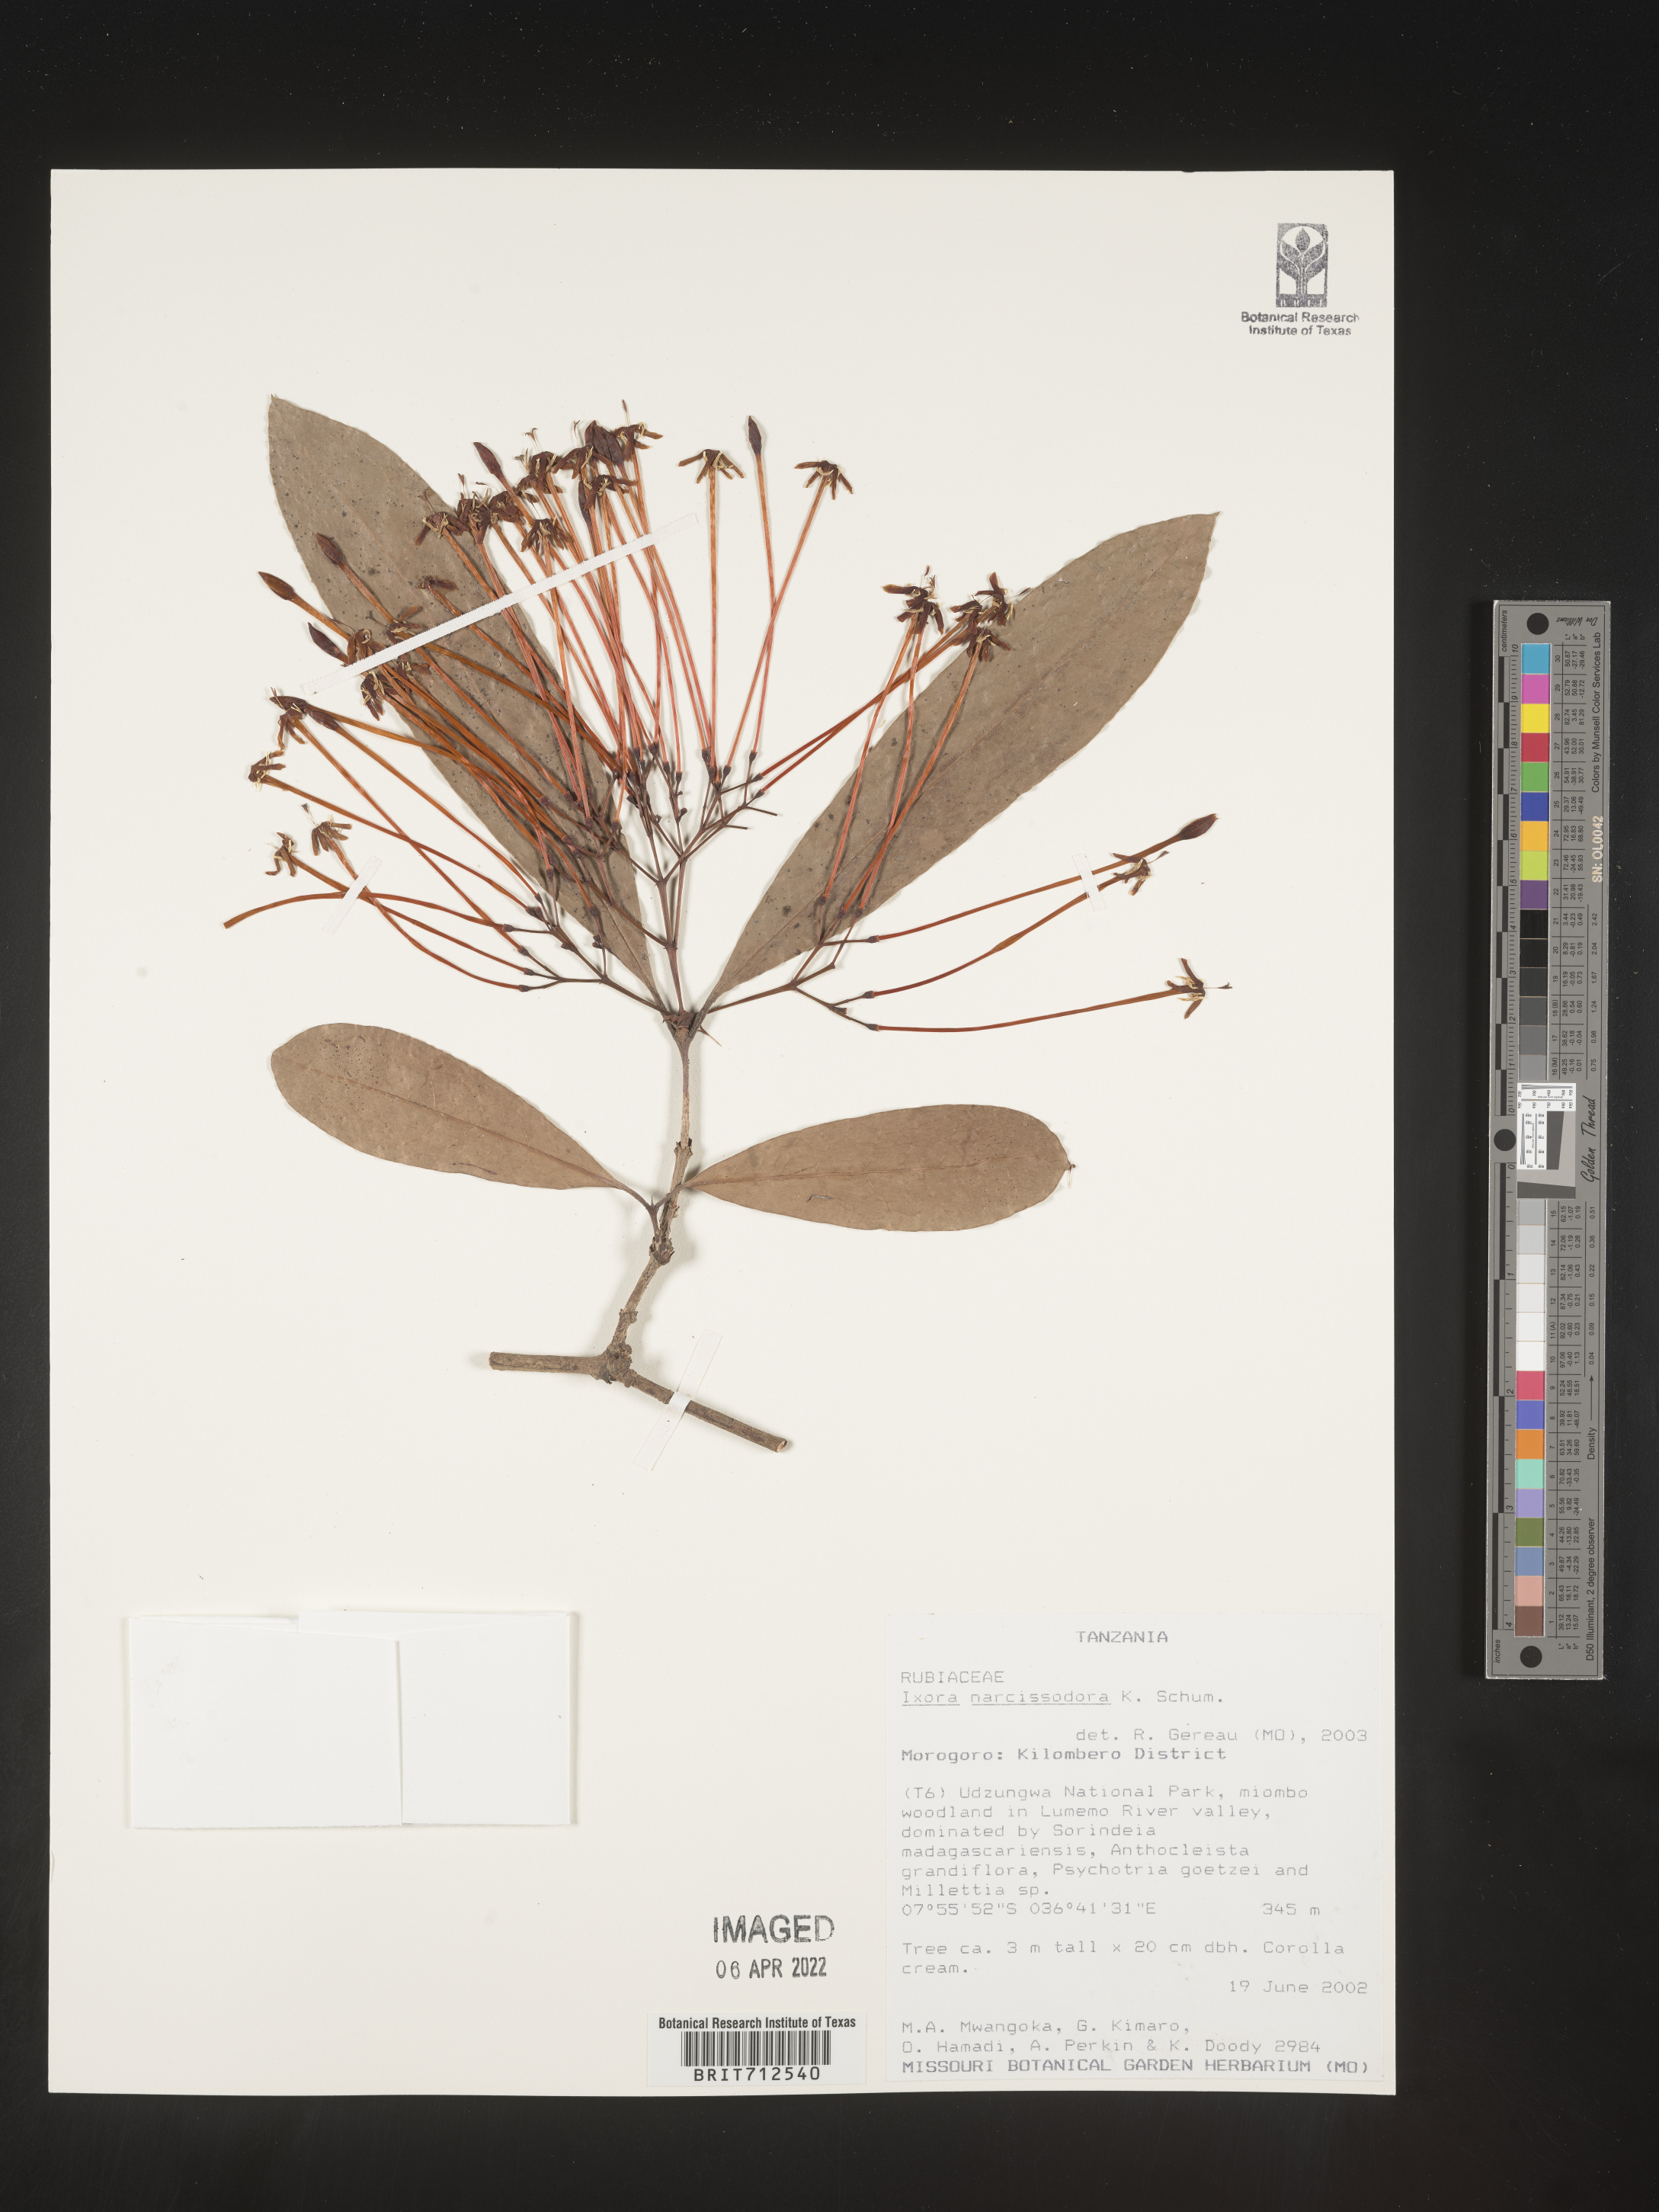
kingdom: Plantae
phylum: Tracheophyta
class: Magnoliopsida
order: Gentianales
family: Rubiaceae
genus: Ixora
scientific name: Ixora
